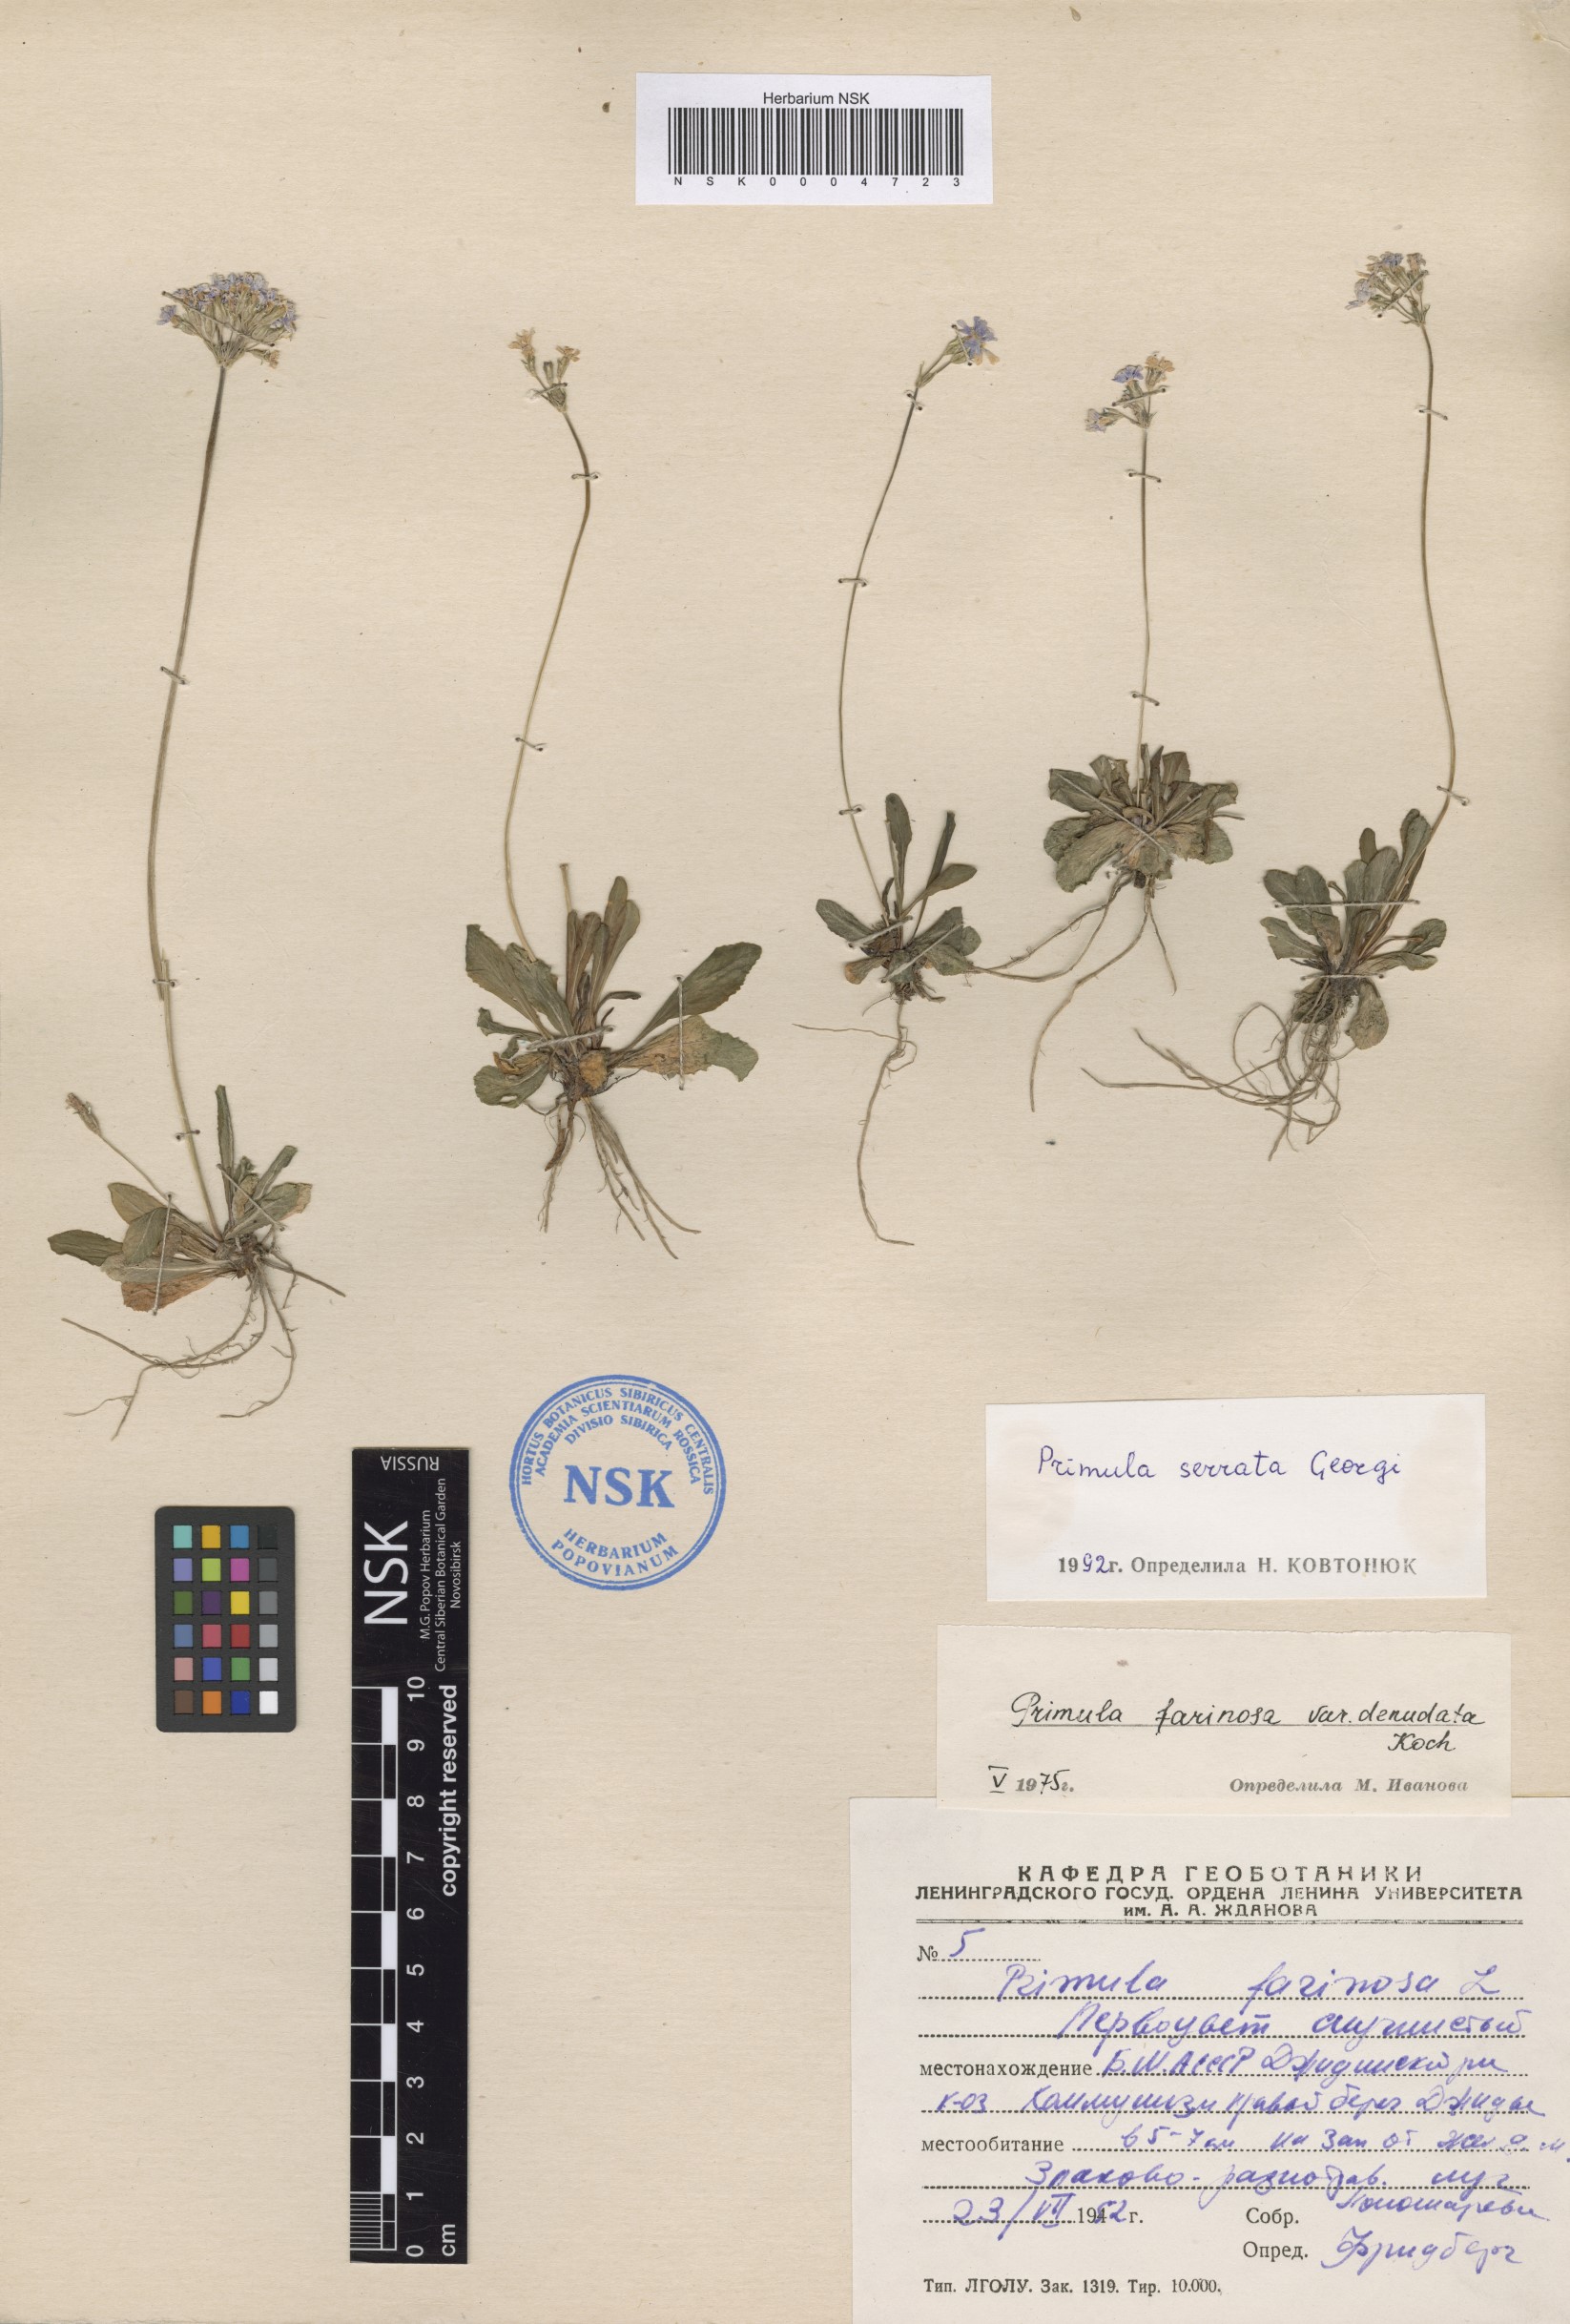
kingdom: Plantae
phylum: Tracheophyta
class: Magnoliopsida
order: Ericales
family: Primulaceae
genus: Primula
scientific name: Primula serrata
